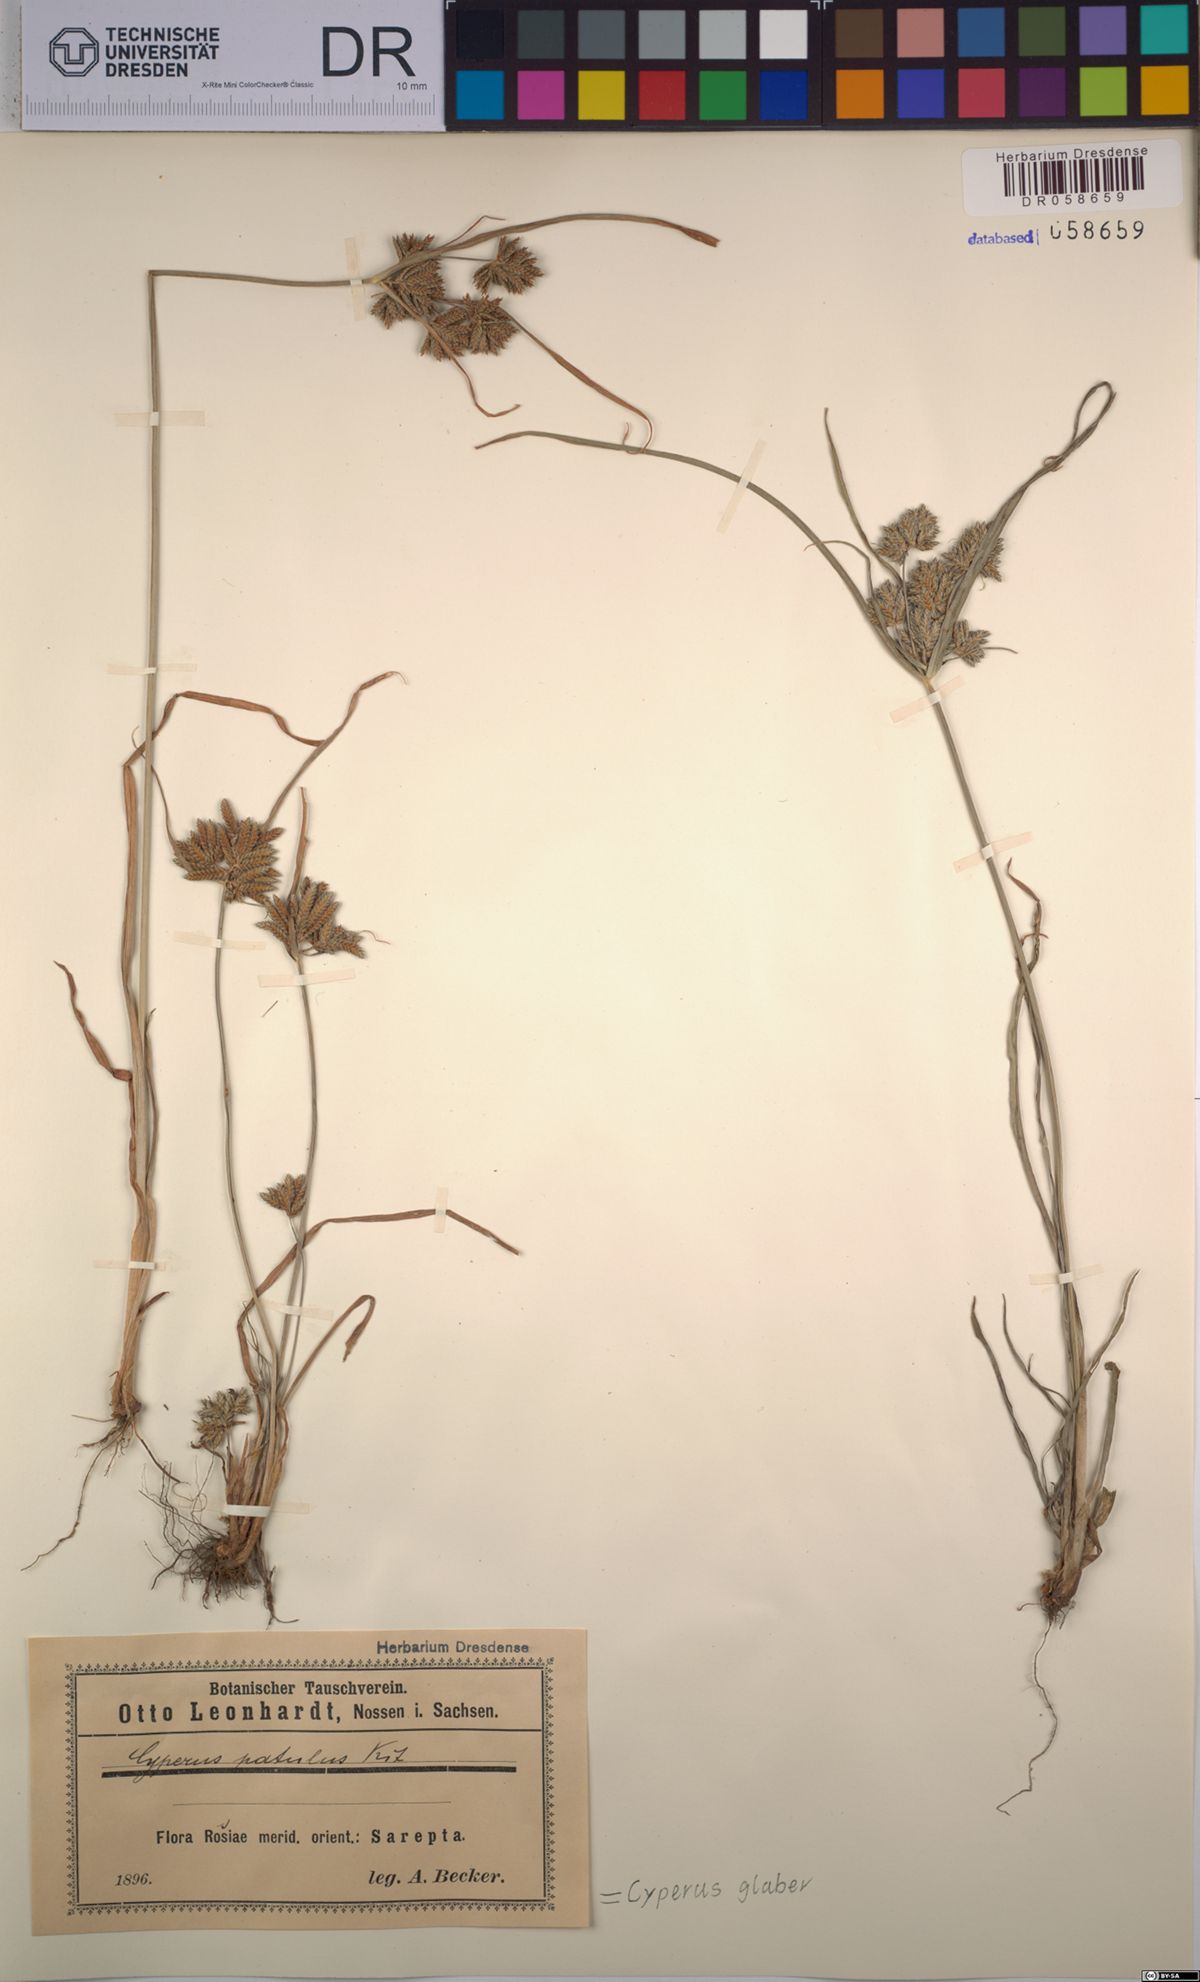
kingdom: Plantae
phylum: Tracheophyta
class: Liliopsida
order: Poales
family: Cyperaceae
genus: Cyperus
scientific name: Cyperus glaber
